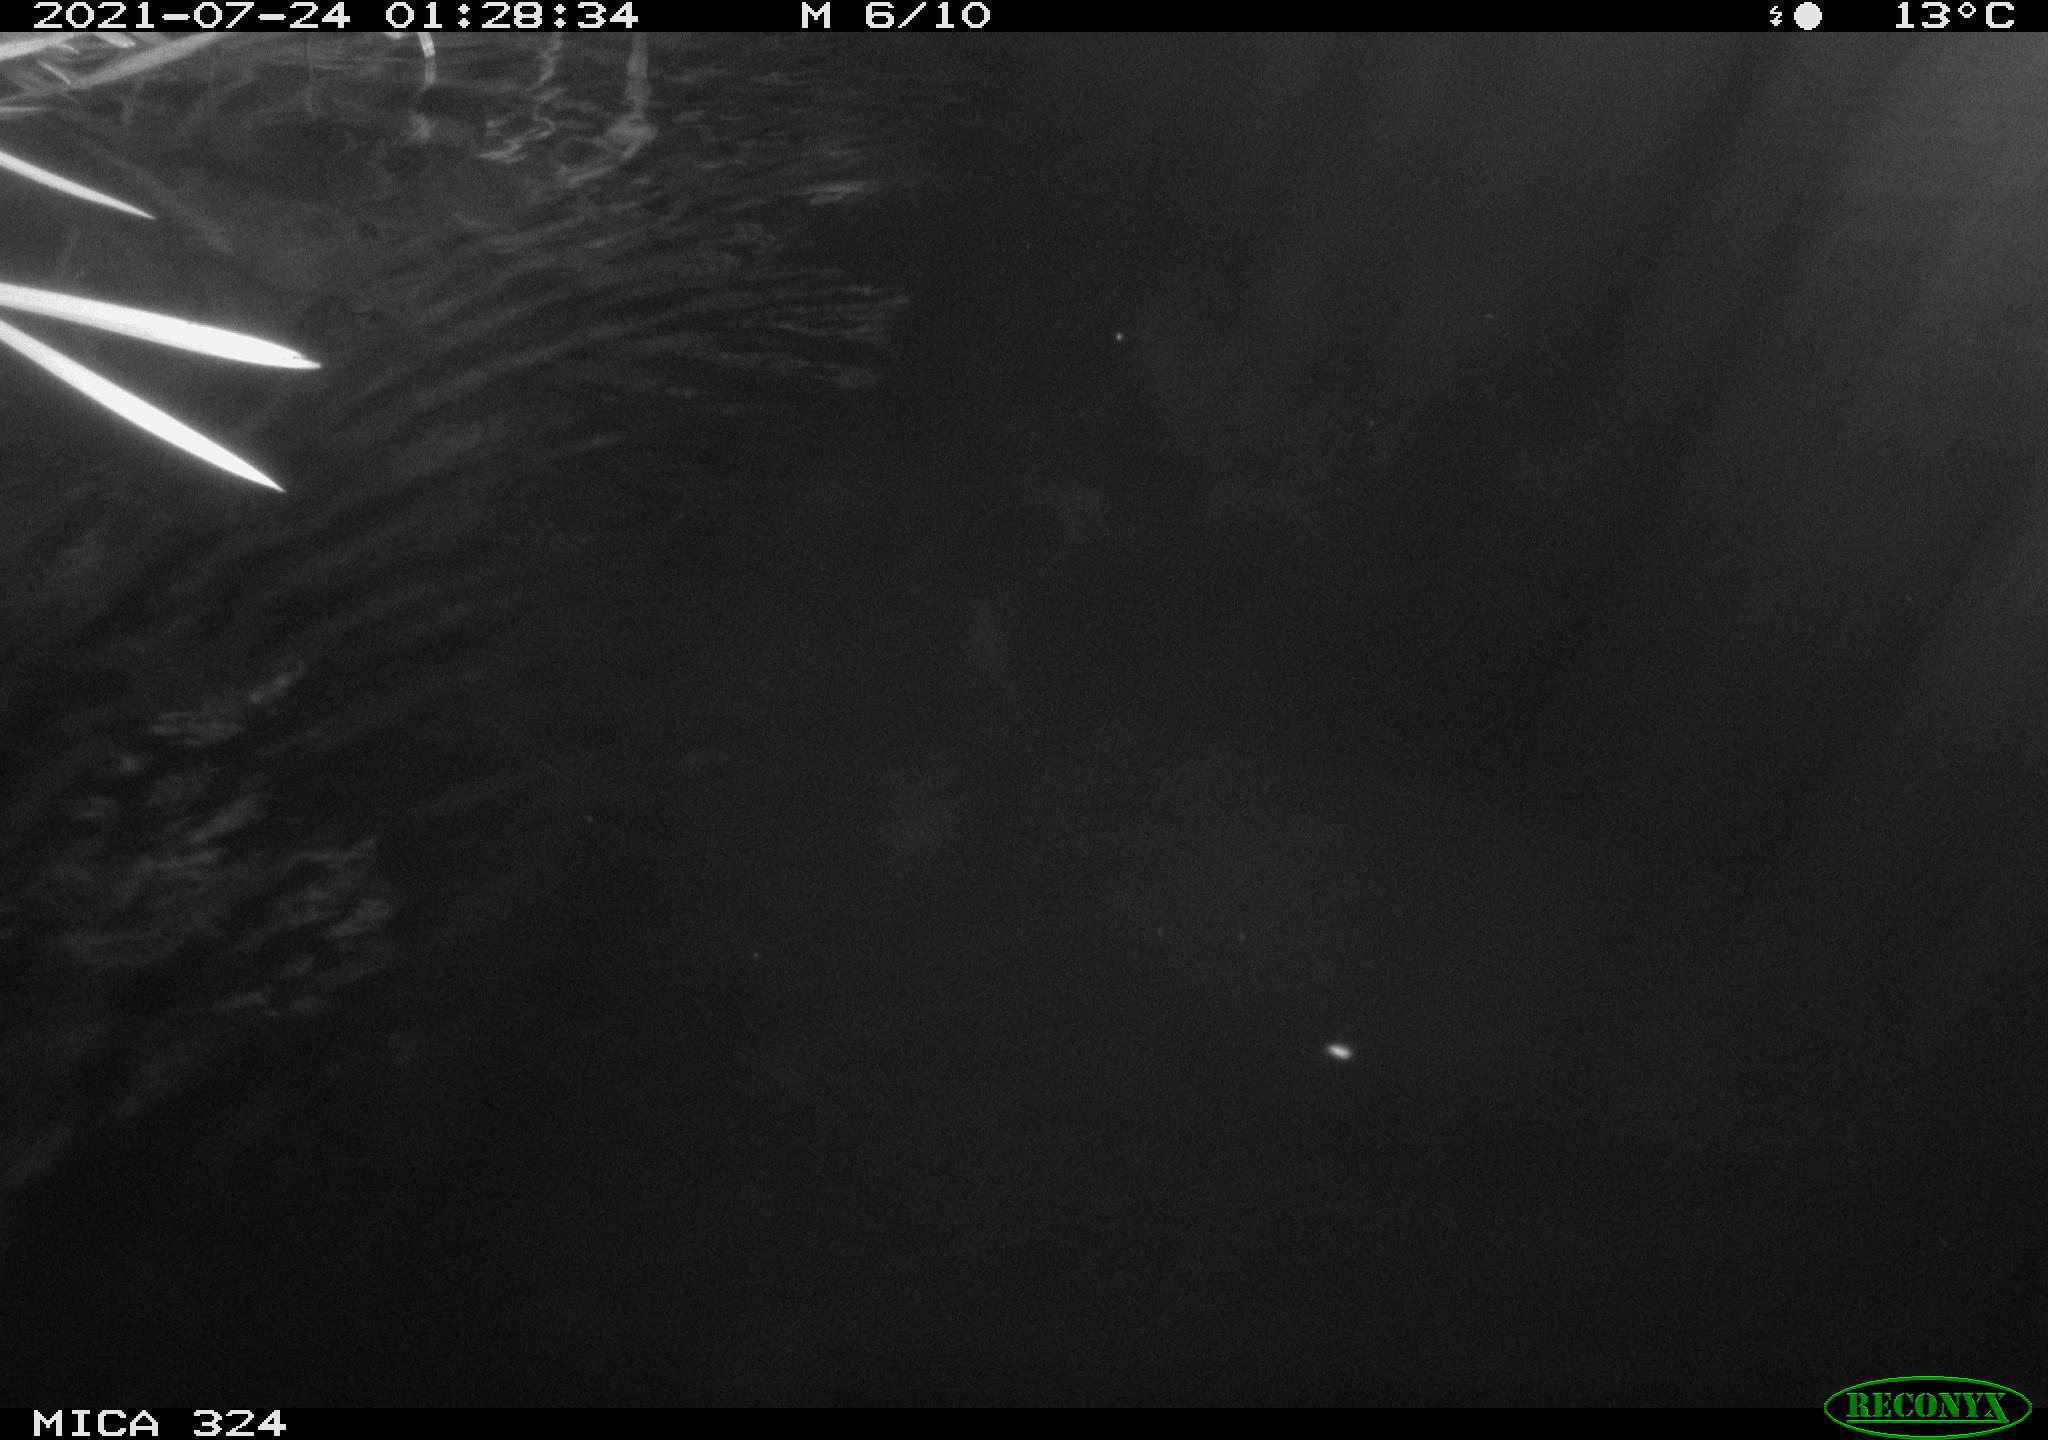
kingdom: Animalia
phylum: Chordata
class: Mammalia
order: Rodentia
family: Cricetidae
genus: Ondatra
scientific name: Ondatra zibethicus
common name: Muskrat
